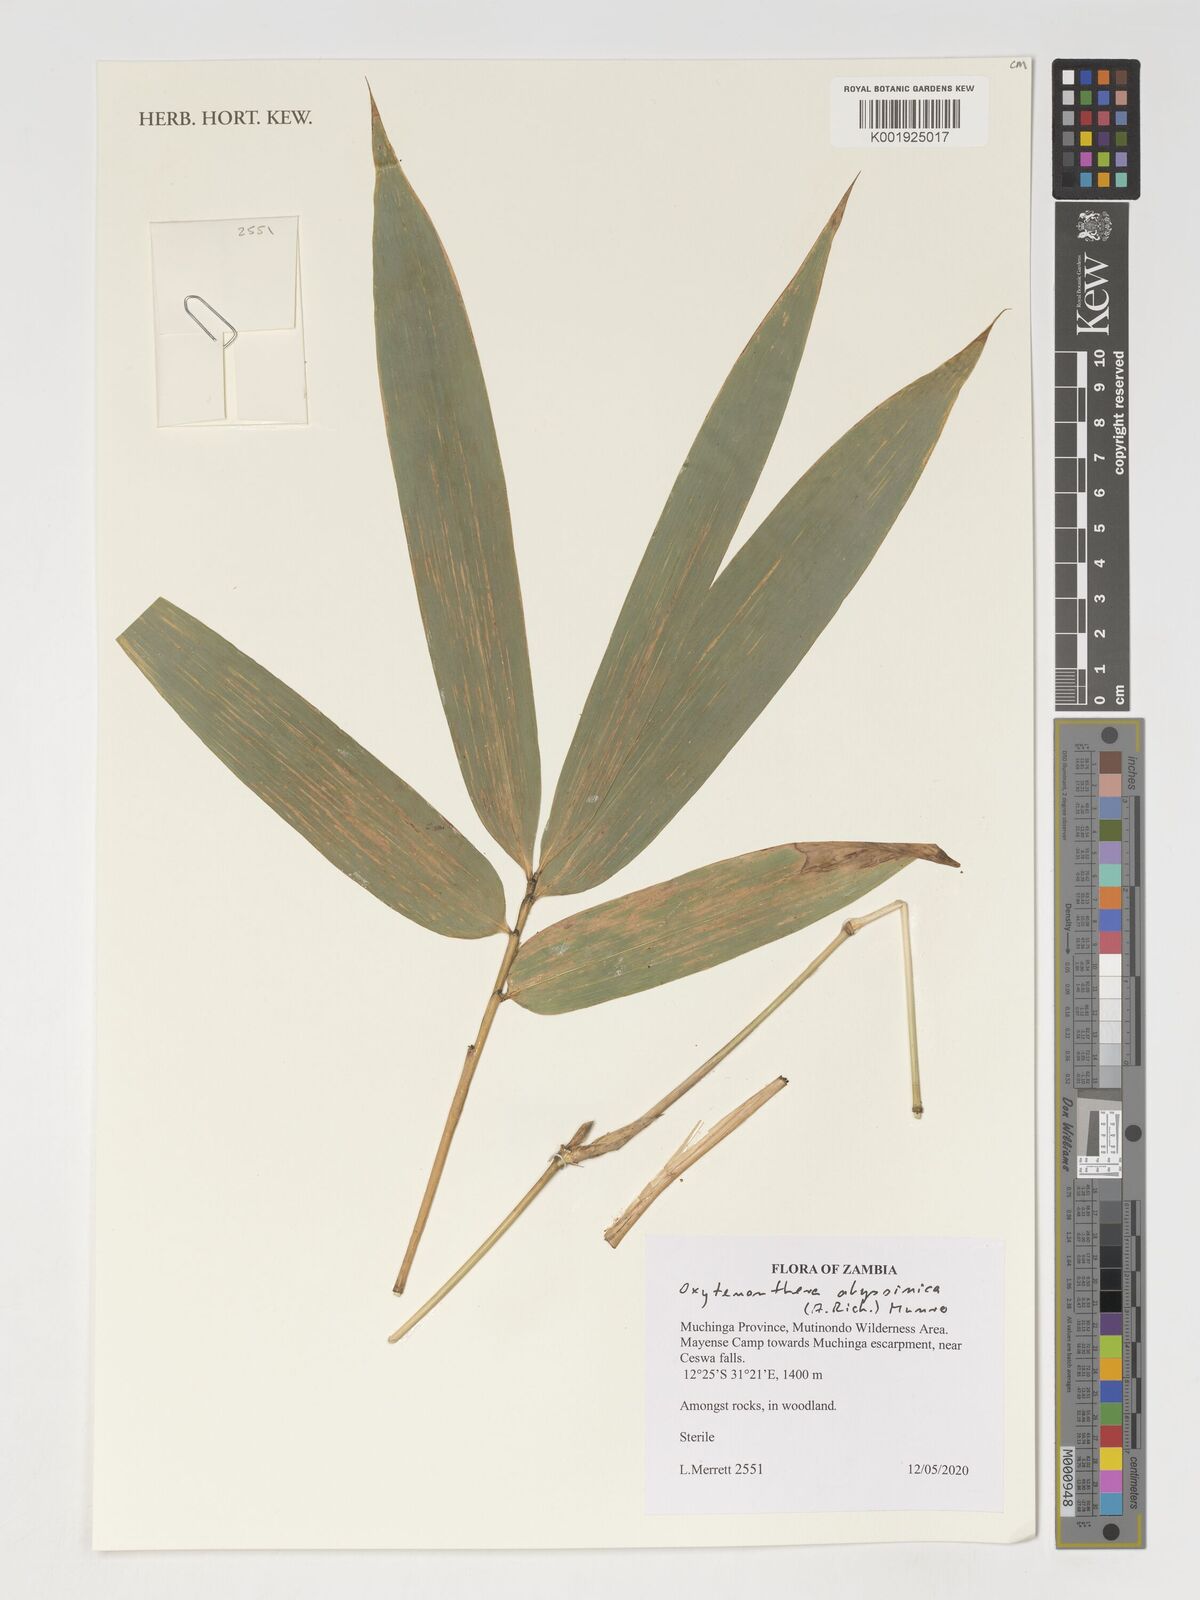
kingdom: Plantae
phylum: Tracheophyta
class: Liliopsida
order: Poales
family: Poaceae
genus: Oxytenanthera
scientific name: Oxytenanthera abyssinica
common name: Wine bamboo
